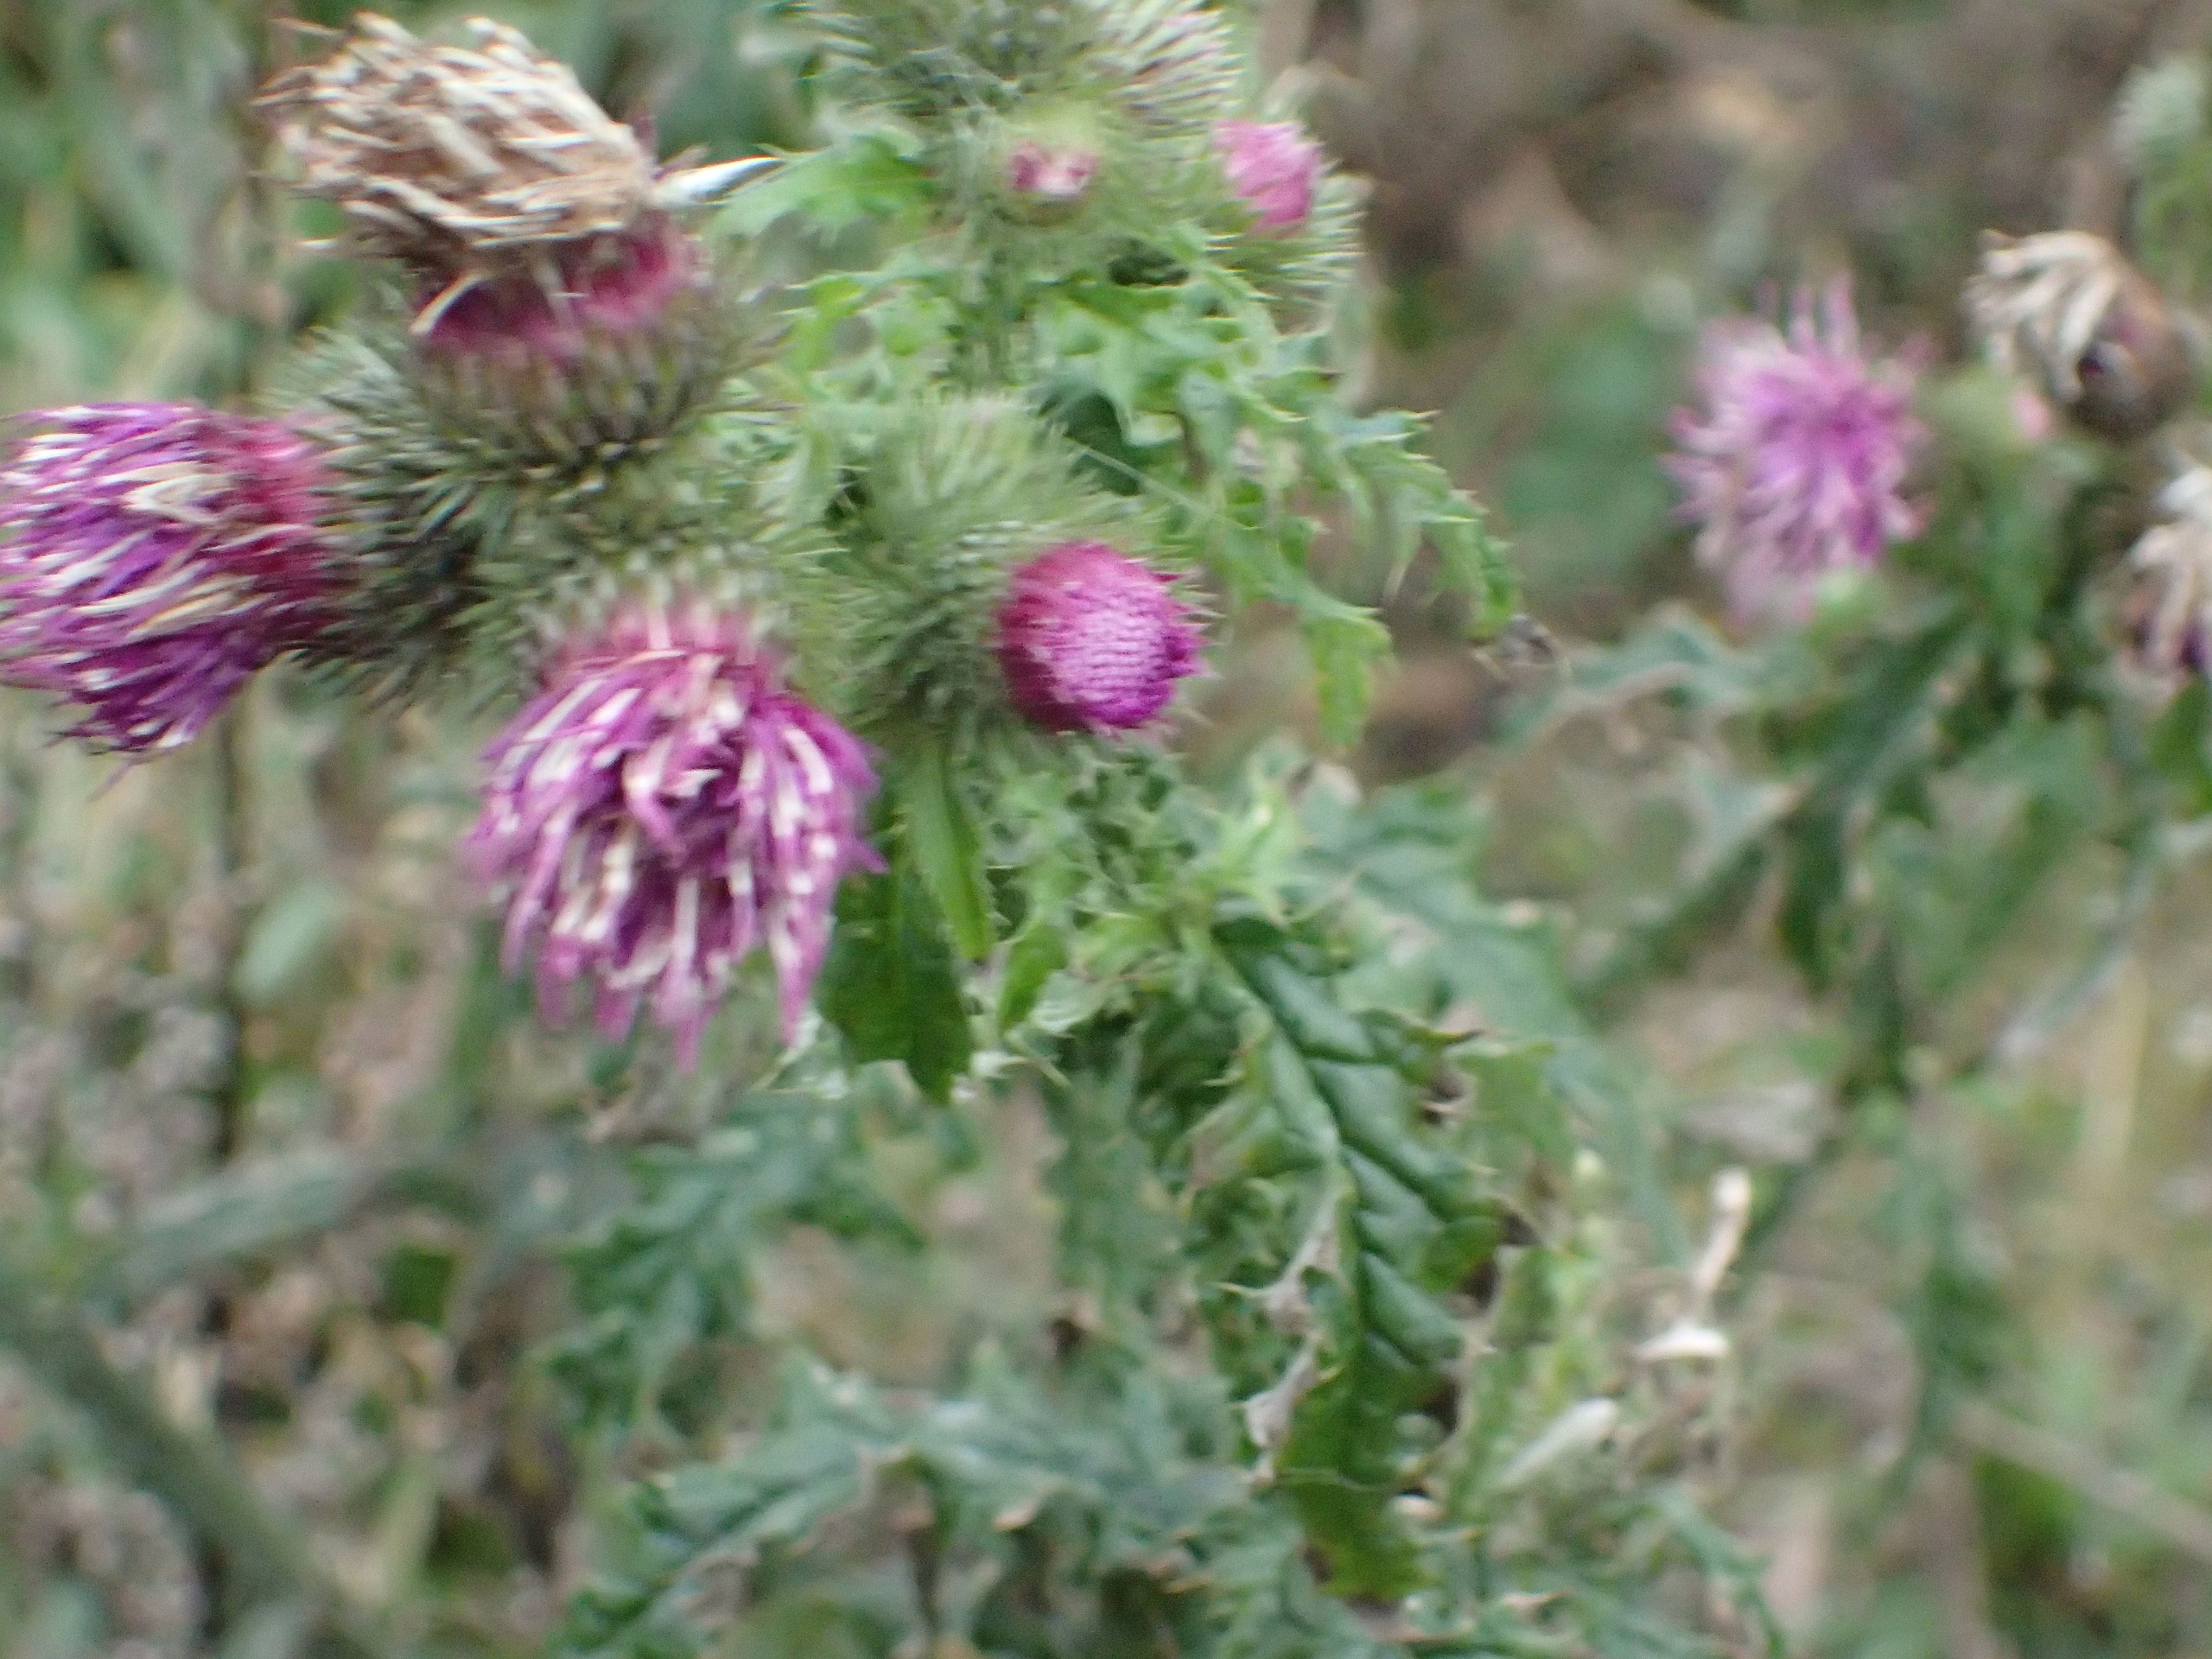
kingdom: Plantae
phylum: Tracheophyta
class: Magnoliopsida
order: Asterales
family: Asteraceae
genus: Carduus
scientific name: Carduus crispus
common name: Kruset tidsel
